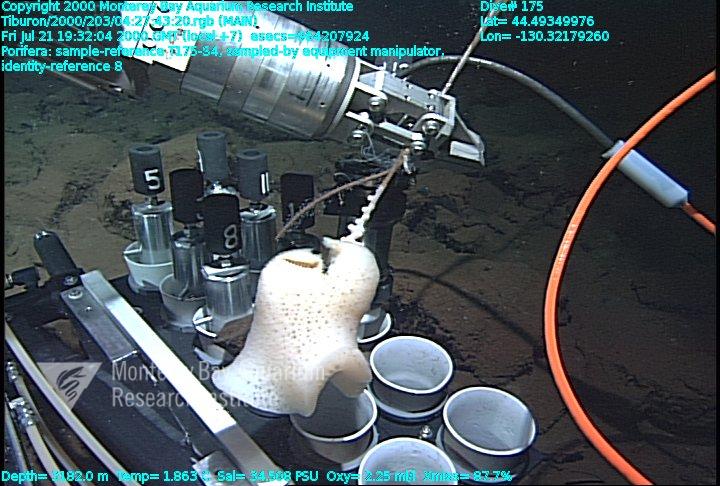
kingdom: Animalia
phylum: Porifera
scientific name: Porifera
